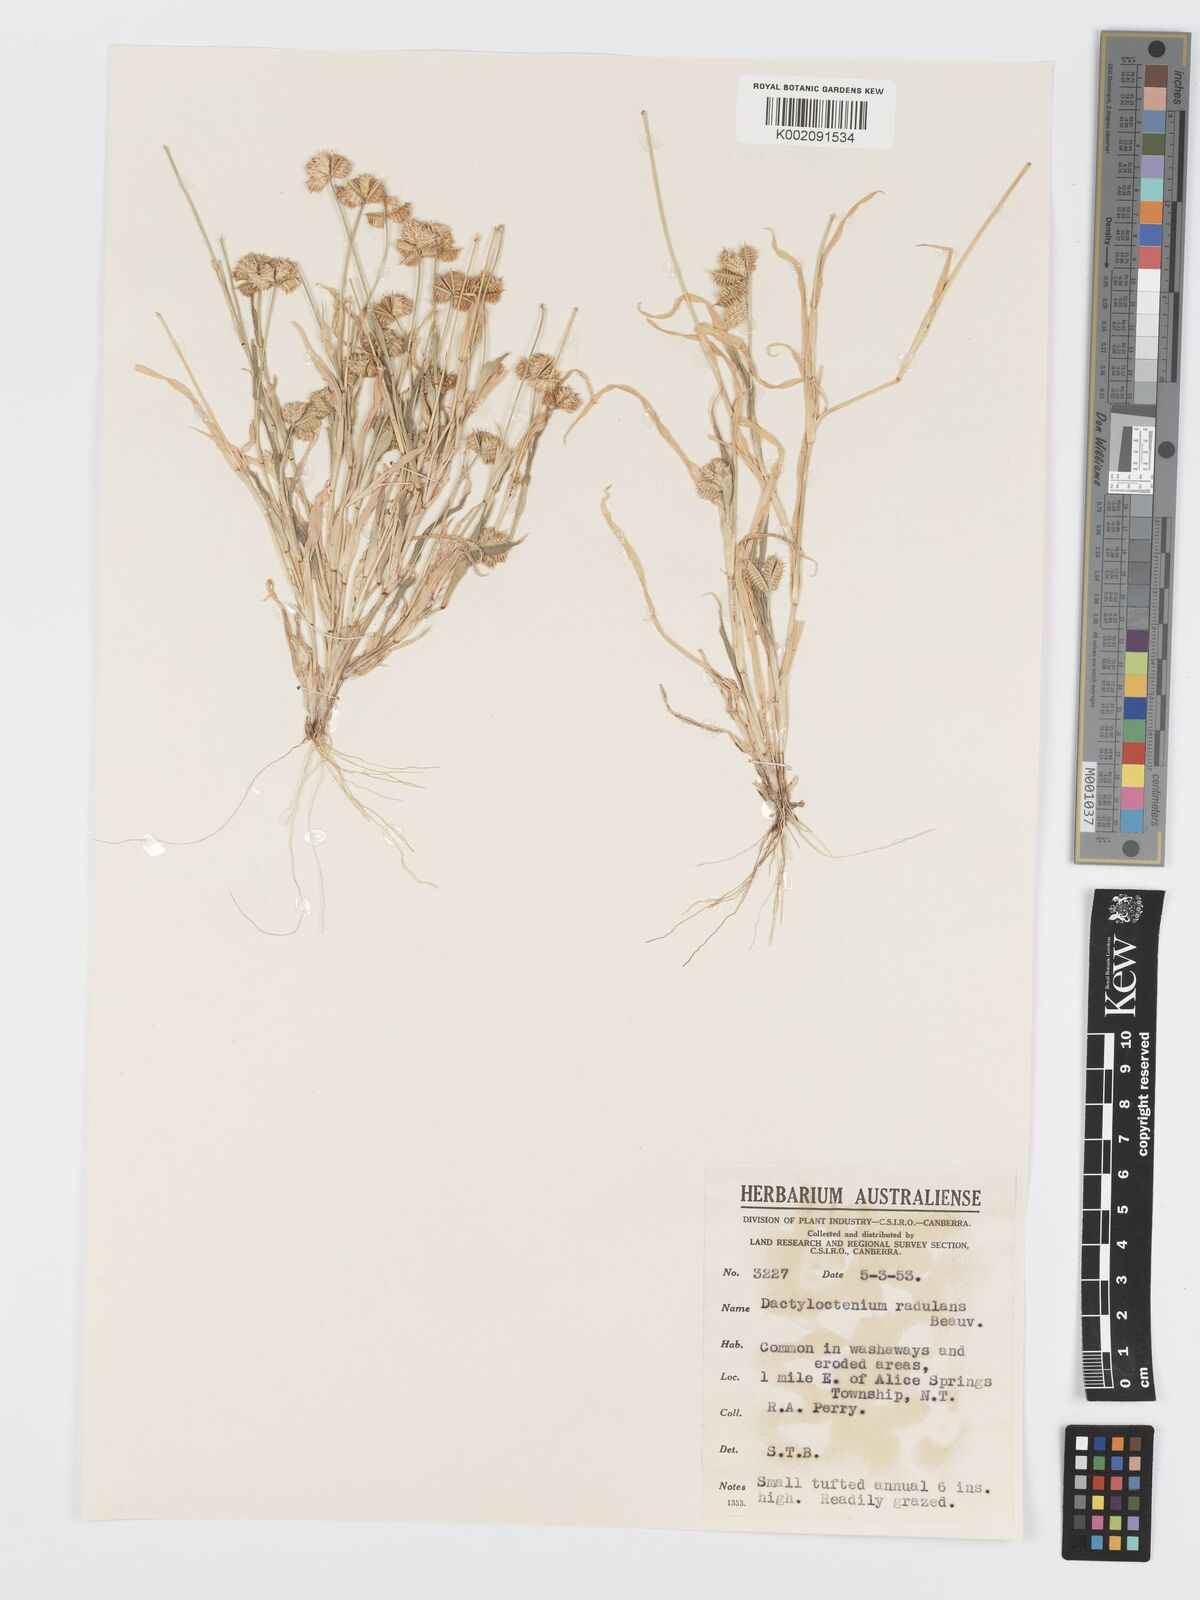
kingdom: Plantae
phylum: Tracheophyta
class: Liliopsida
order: Poales
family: Poaceae
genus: Dactyloctenium
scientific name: Dactyloctenium radulans
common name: Button-grass
